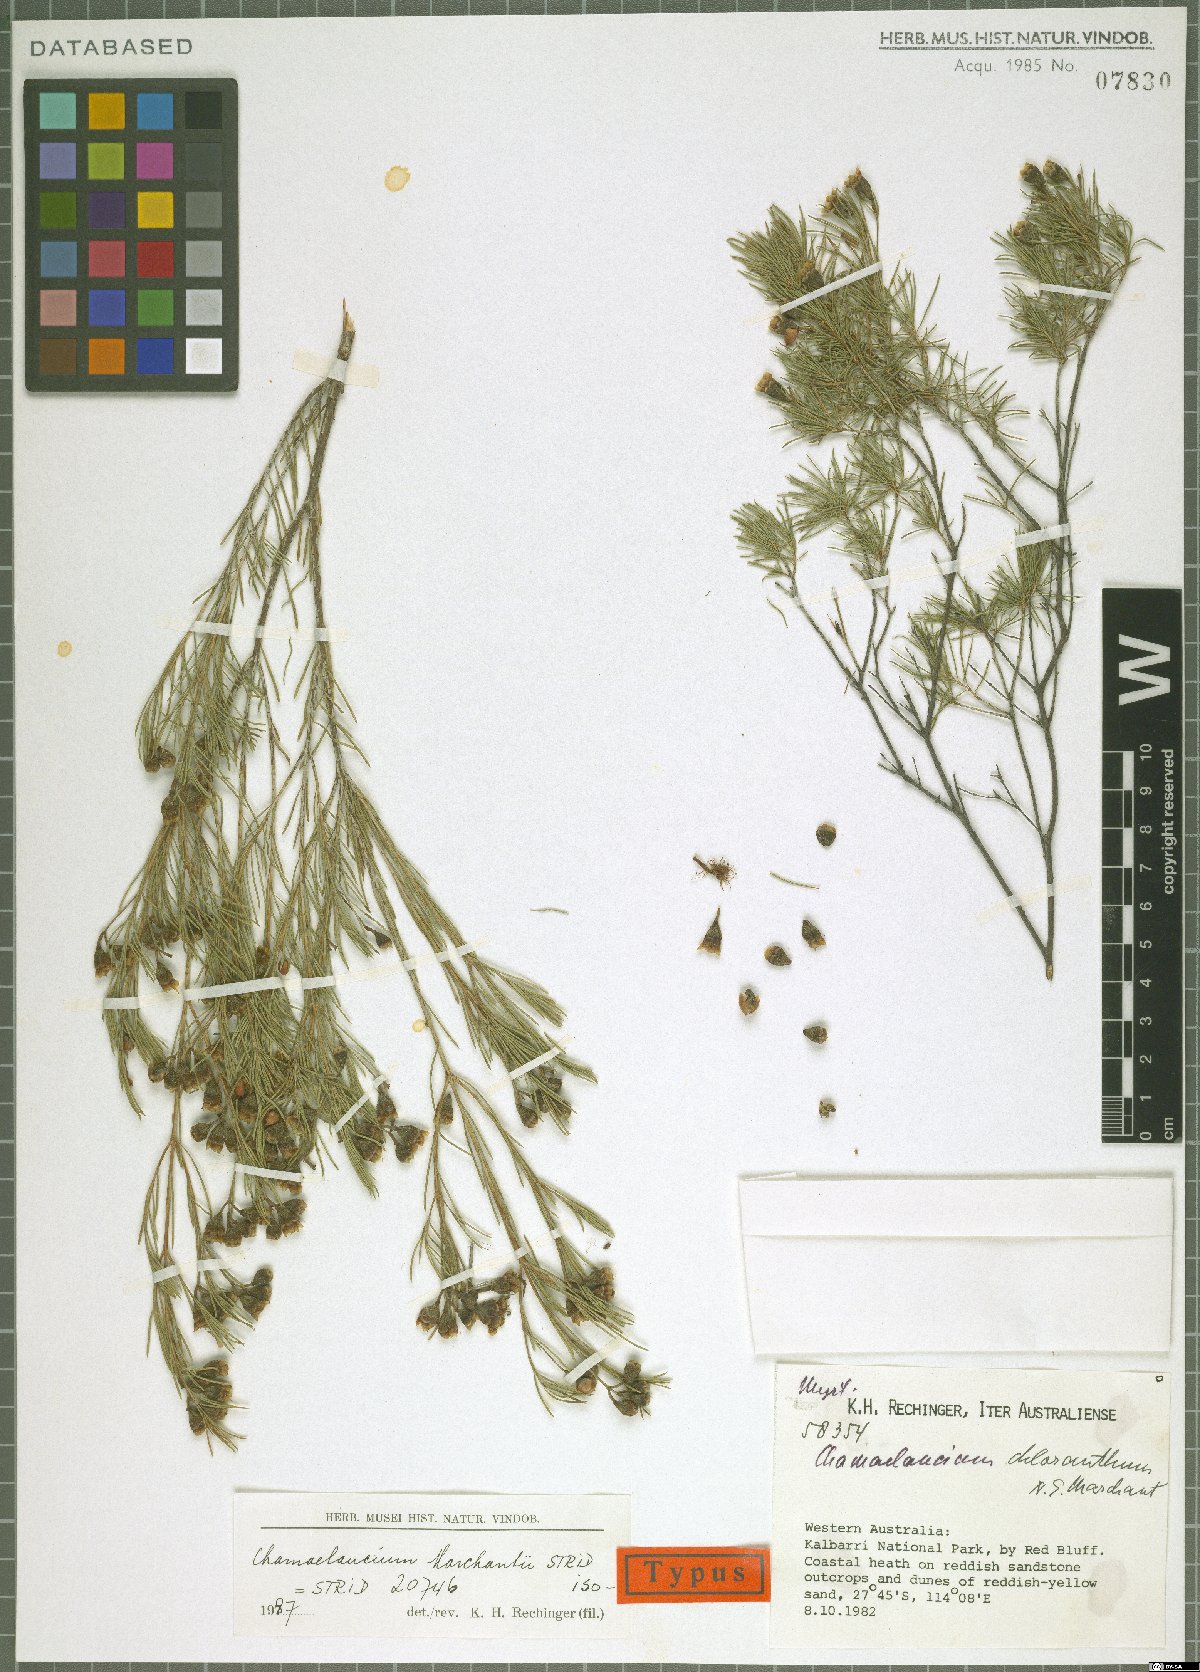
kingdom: Plantae
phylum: Tracheophyta
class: Magnoliopsida
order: Myrtales
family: Myrtaceae
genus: Chamelaucium
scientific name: Chamelaucium marchantii
